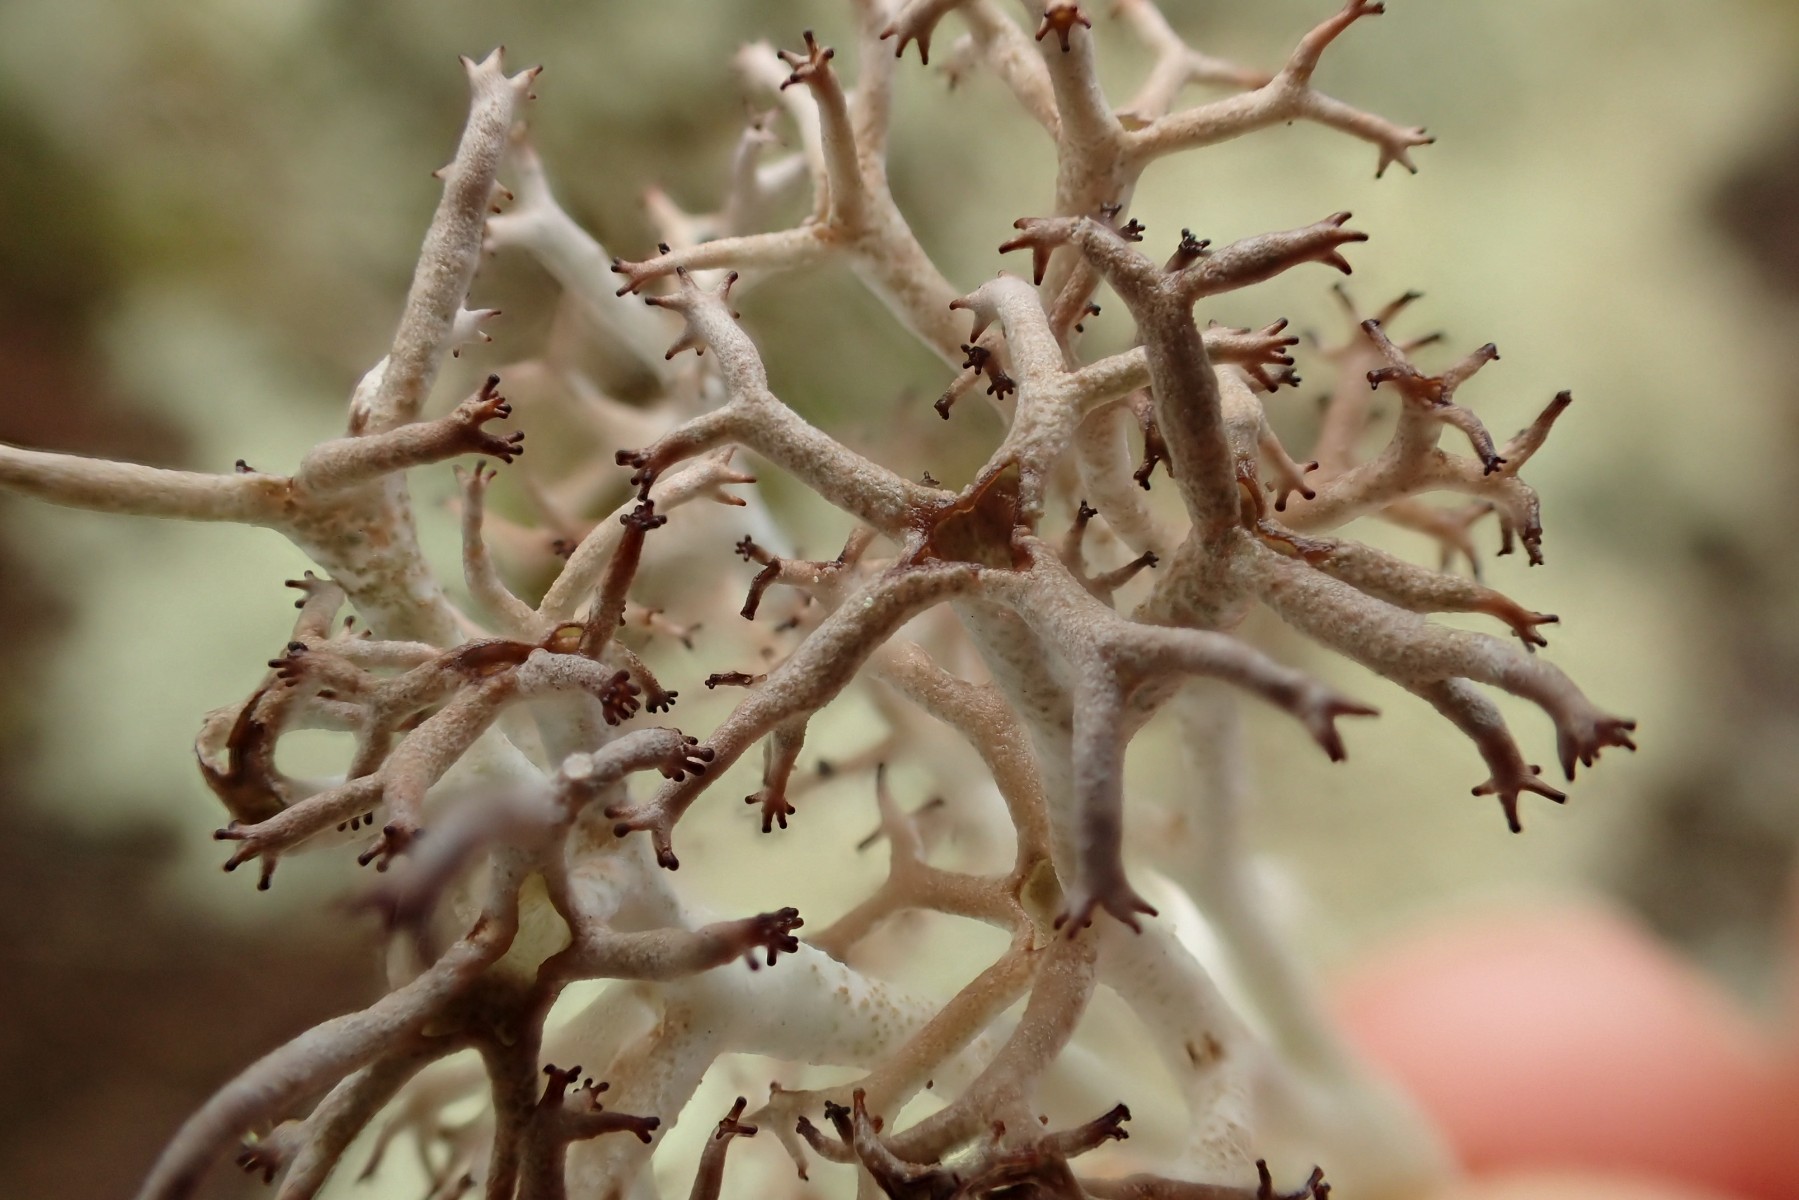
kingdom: Fungi
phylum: Ascomycota
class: Lecanoromycetes
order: Lecanorales
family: Cladoniaceae
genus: Cladonia
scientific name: Cladonia rangiferina
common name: askegrå rensdyrlav
